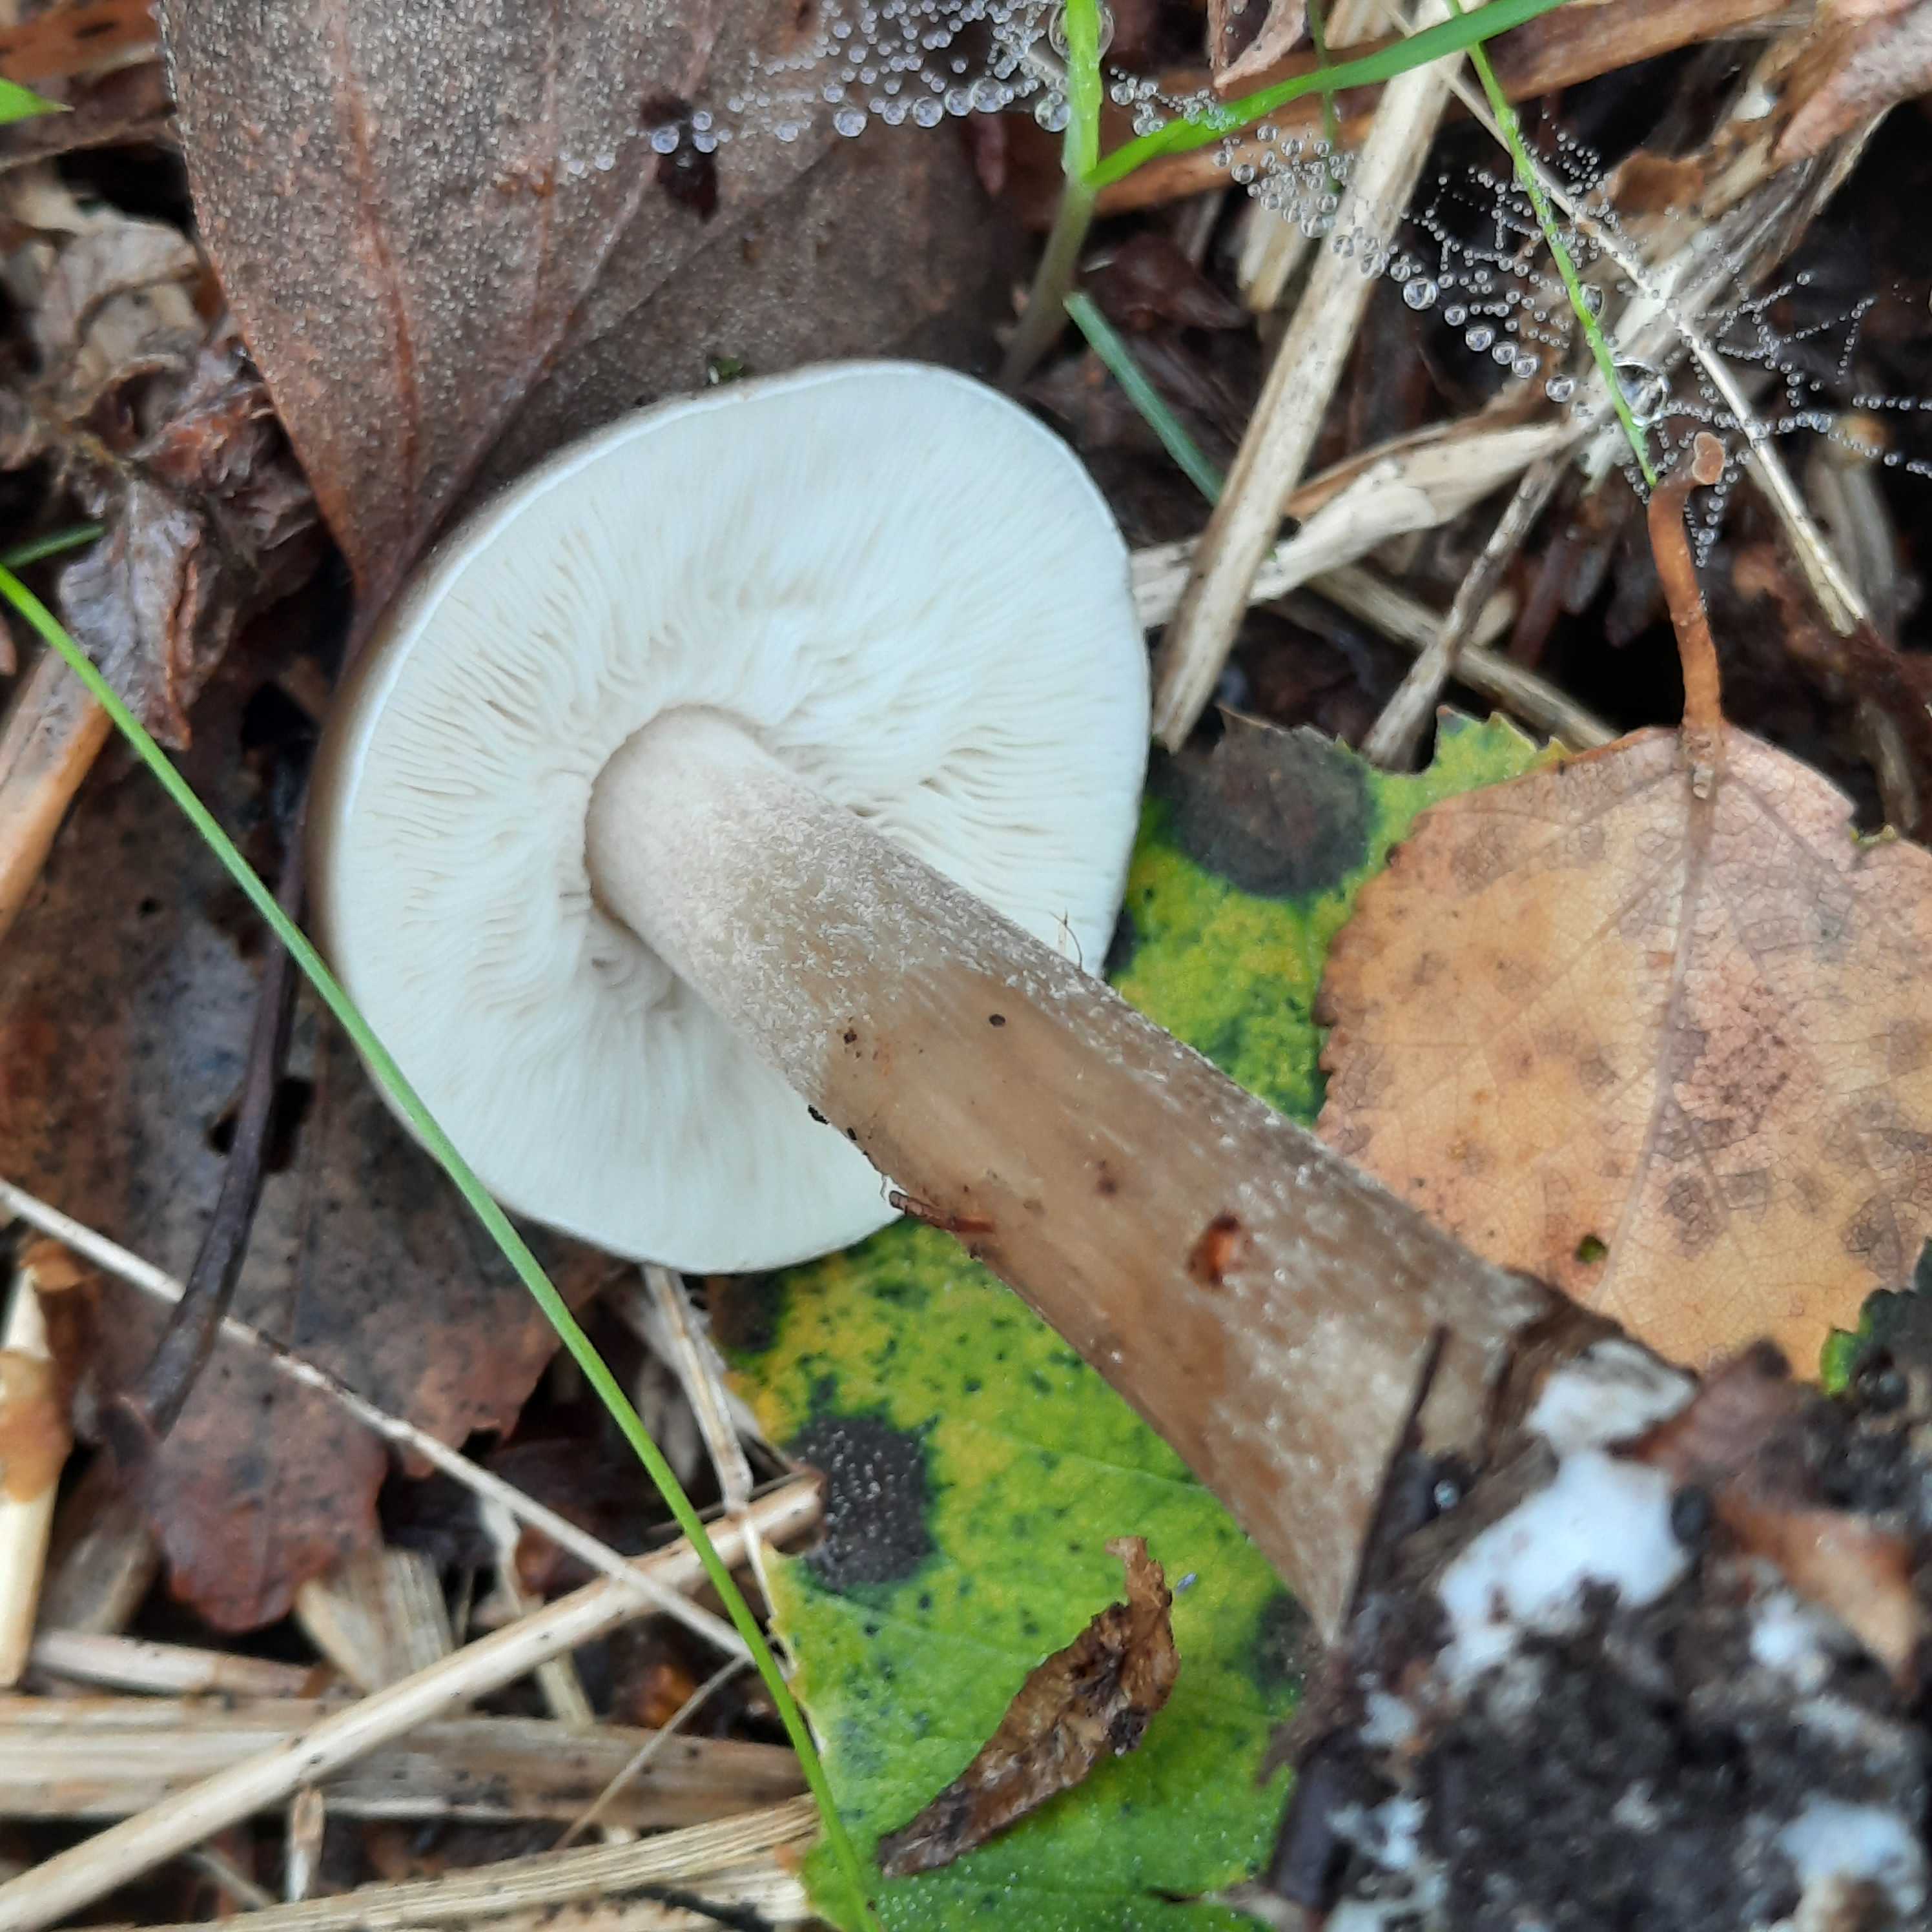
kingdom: Fungi
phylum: Basidiomycota
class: Agaricomycetes
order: Agaricales
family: Tricholomataceae
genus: Melanoleuca
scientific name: Melanoleuca
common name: munkehat
